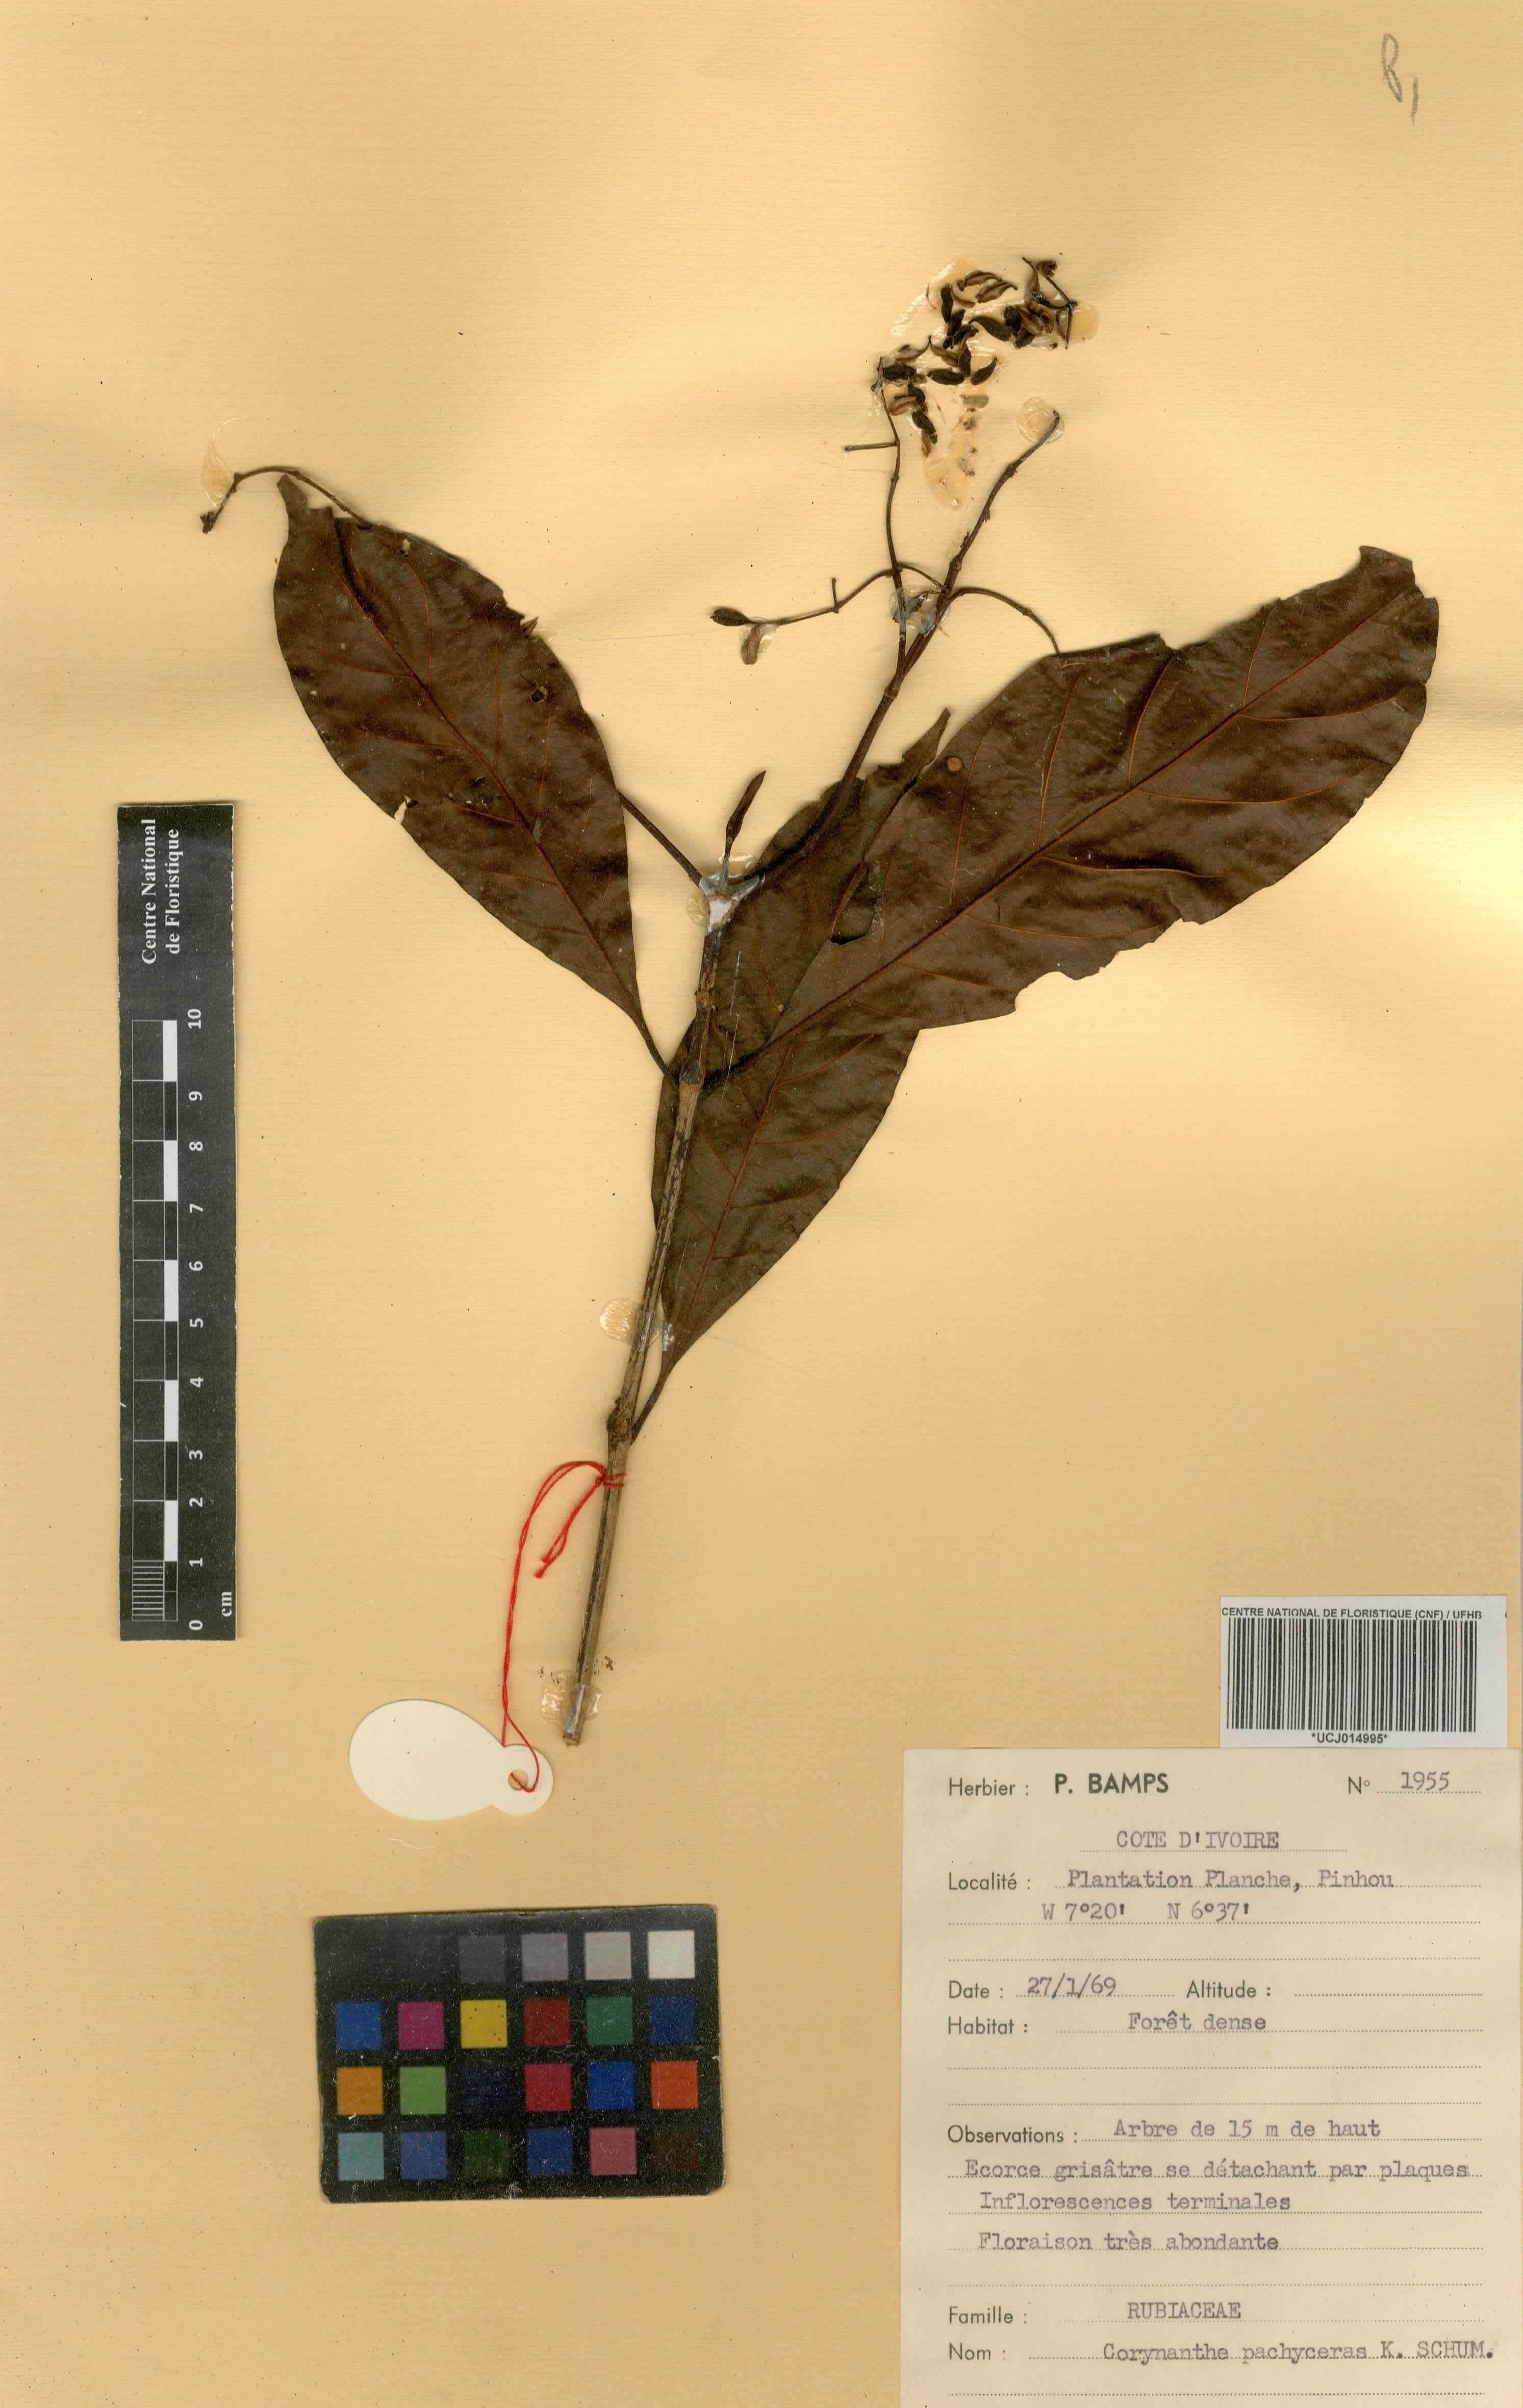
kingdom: Plantae
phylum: Tracheophyta
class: Magnoliopsida
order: Gentianales
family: Rubiaceae
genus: Corynanthe
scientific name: Corynanthe pachyceras
